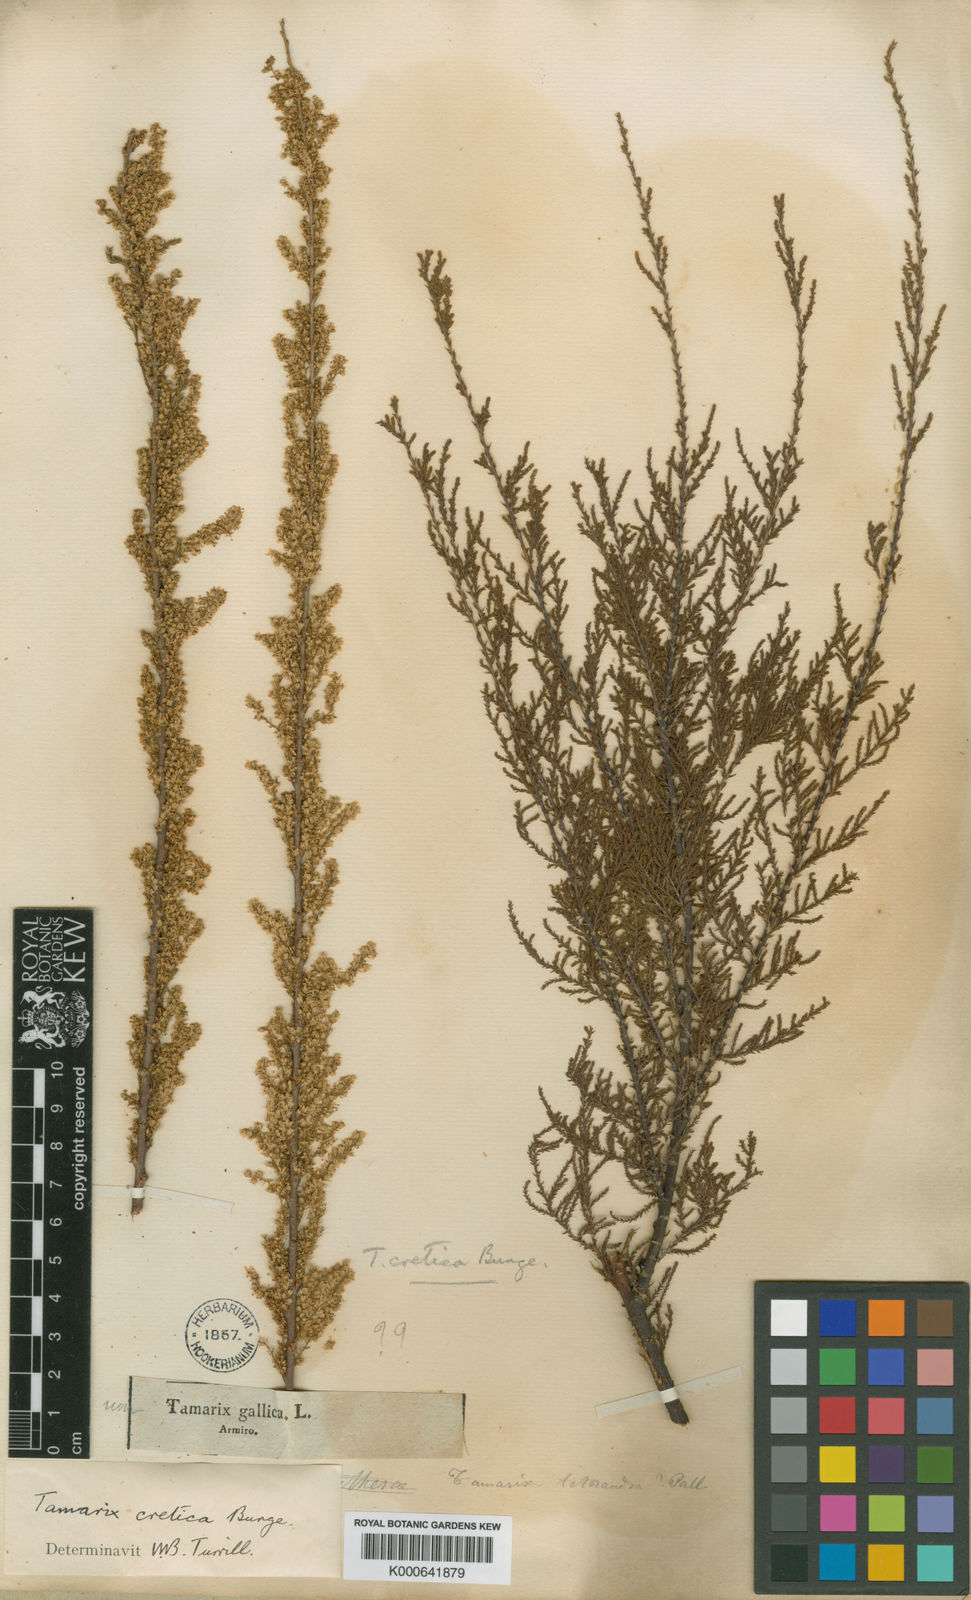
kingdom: Plantae
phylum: Tracheophyta
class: Magnoliopsida
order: Caryophyllales
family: Tamaricaceae
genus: Tamarix
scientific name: Tamarix parviflora
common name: Smallflower tamarisk
